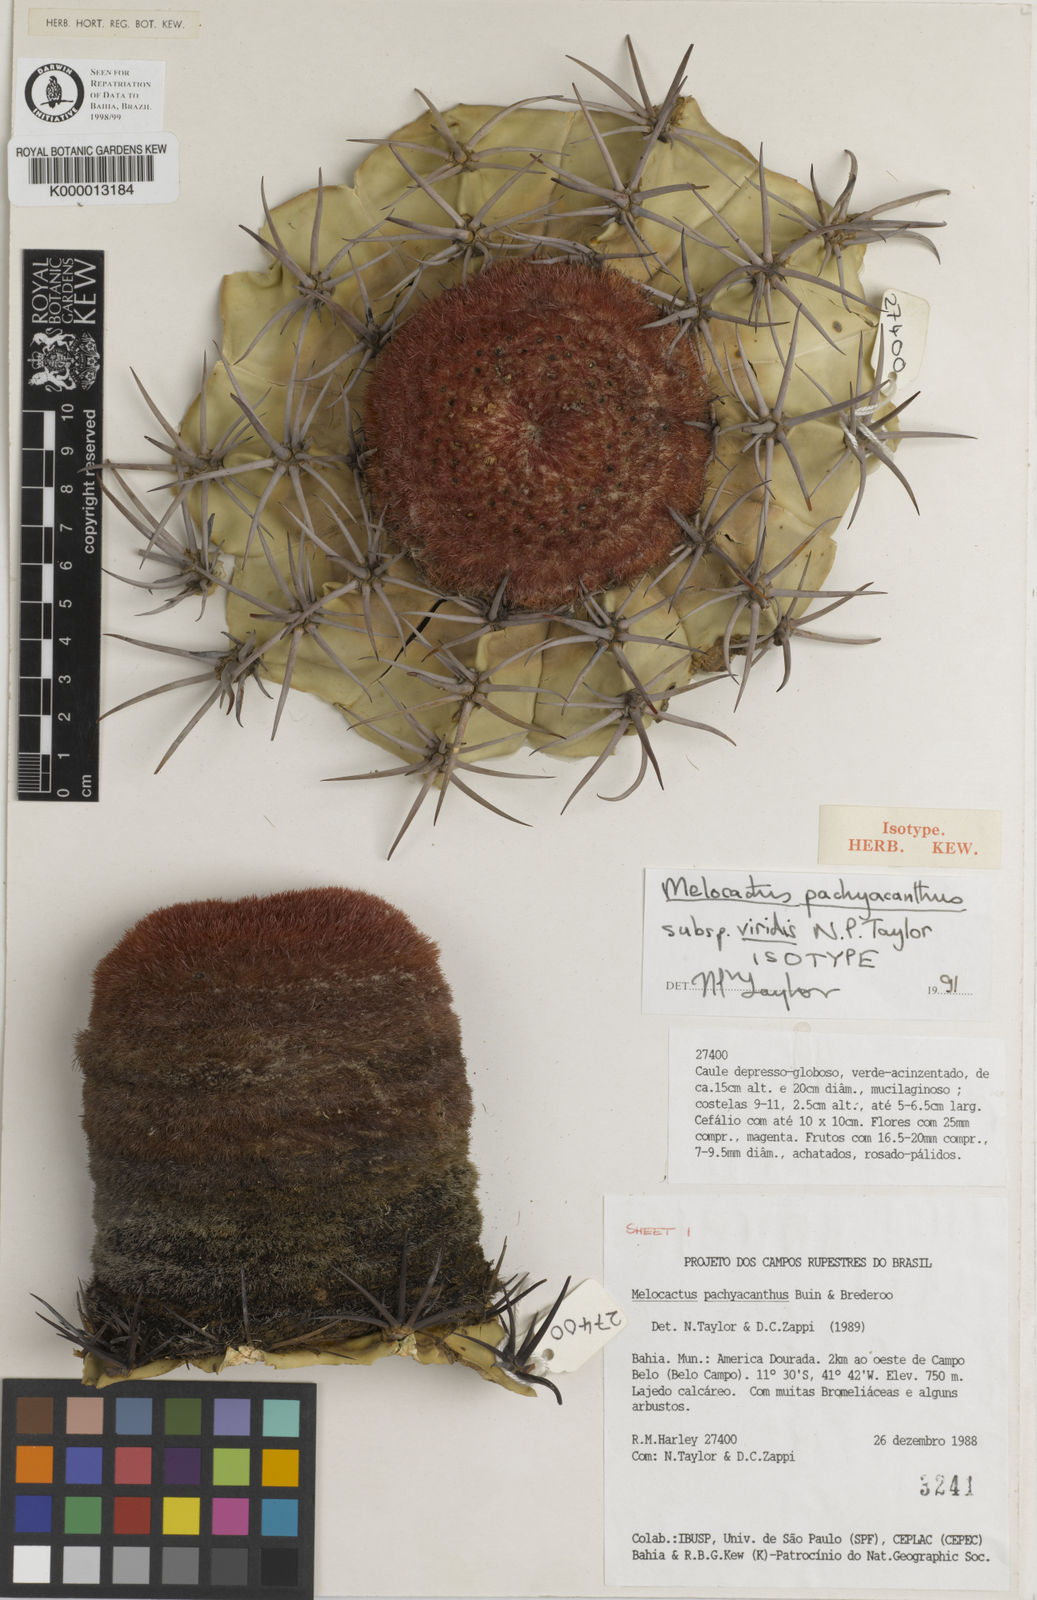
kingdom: Plantae
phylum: Tracheophyta
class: Magnoliopsida
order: Caryophyllales
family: Cactaceae
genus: Melocactus
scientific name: Melocactus neoviridescens
